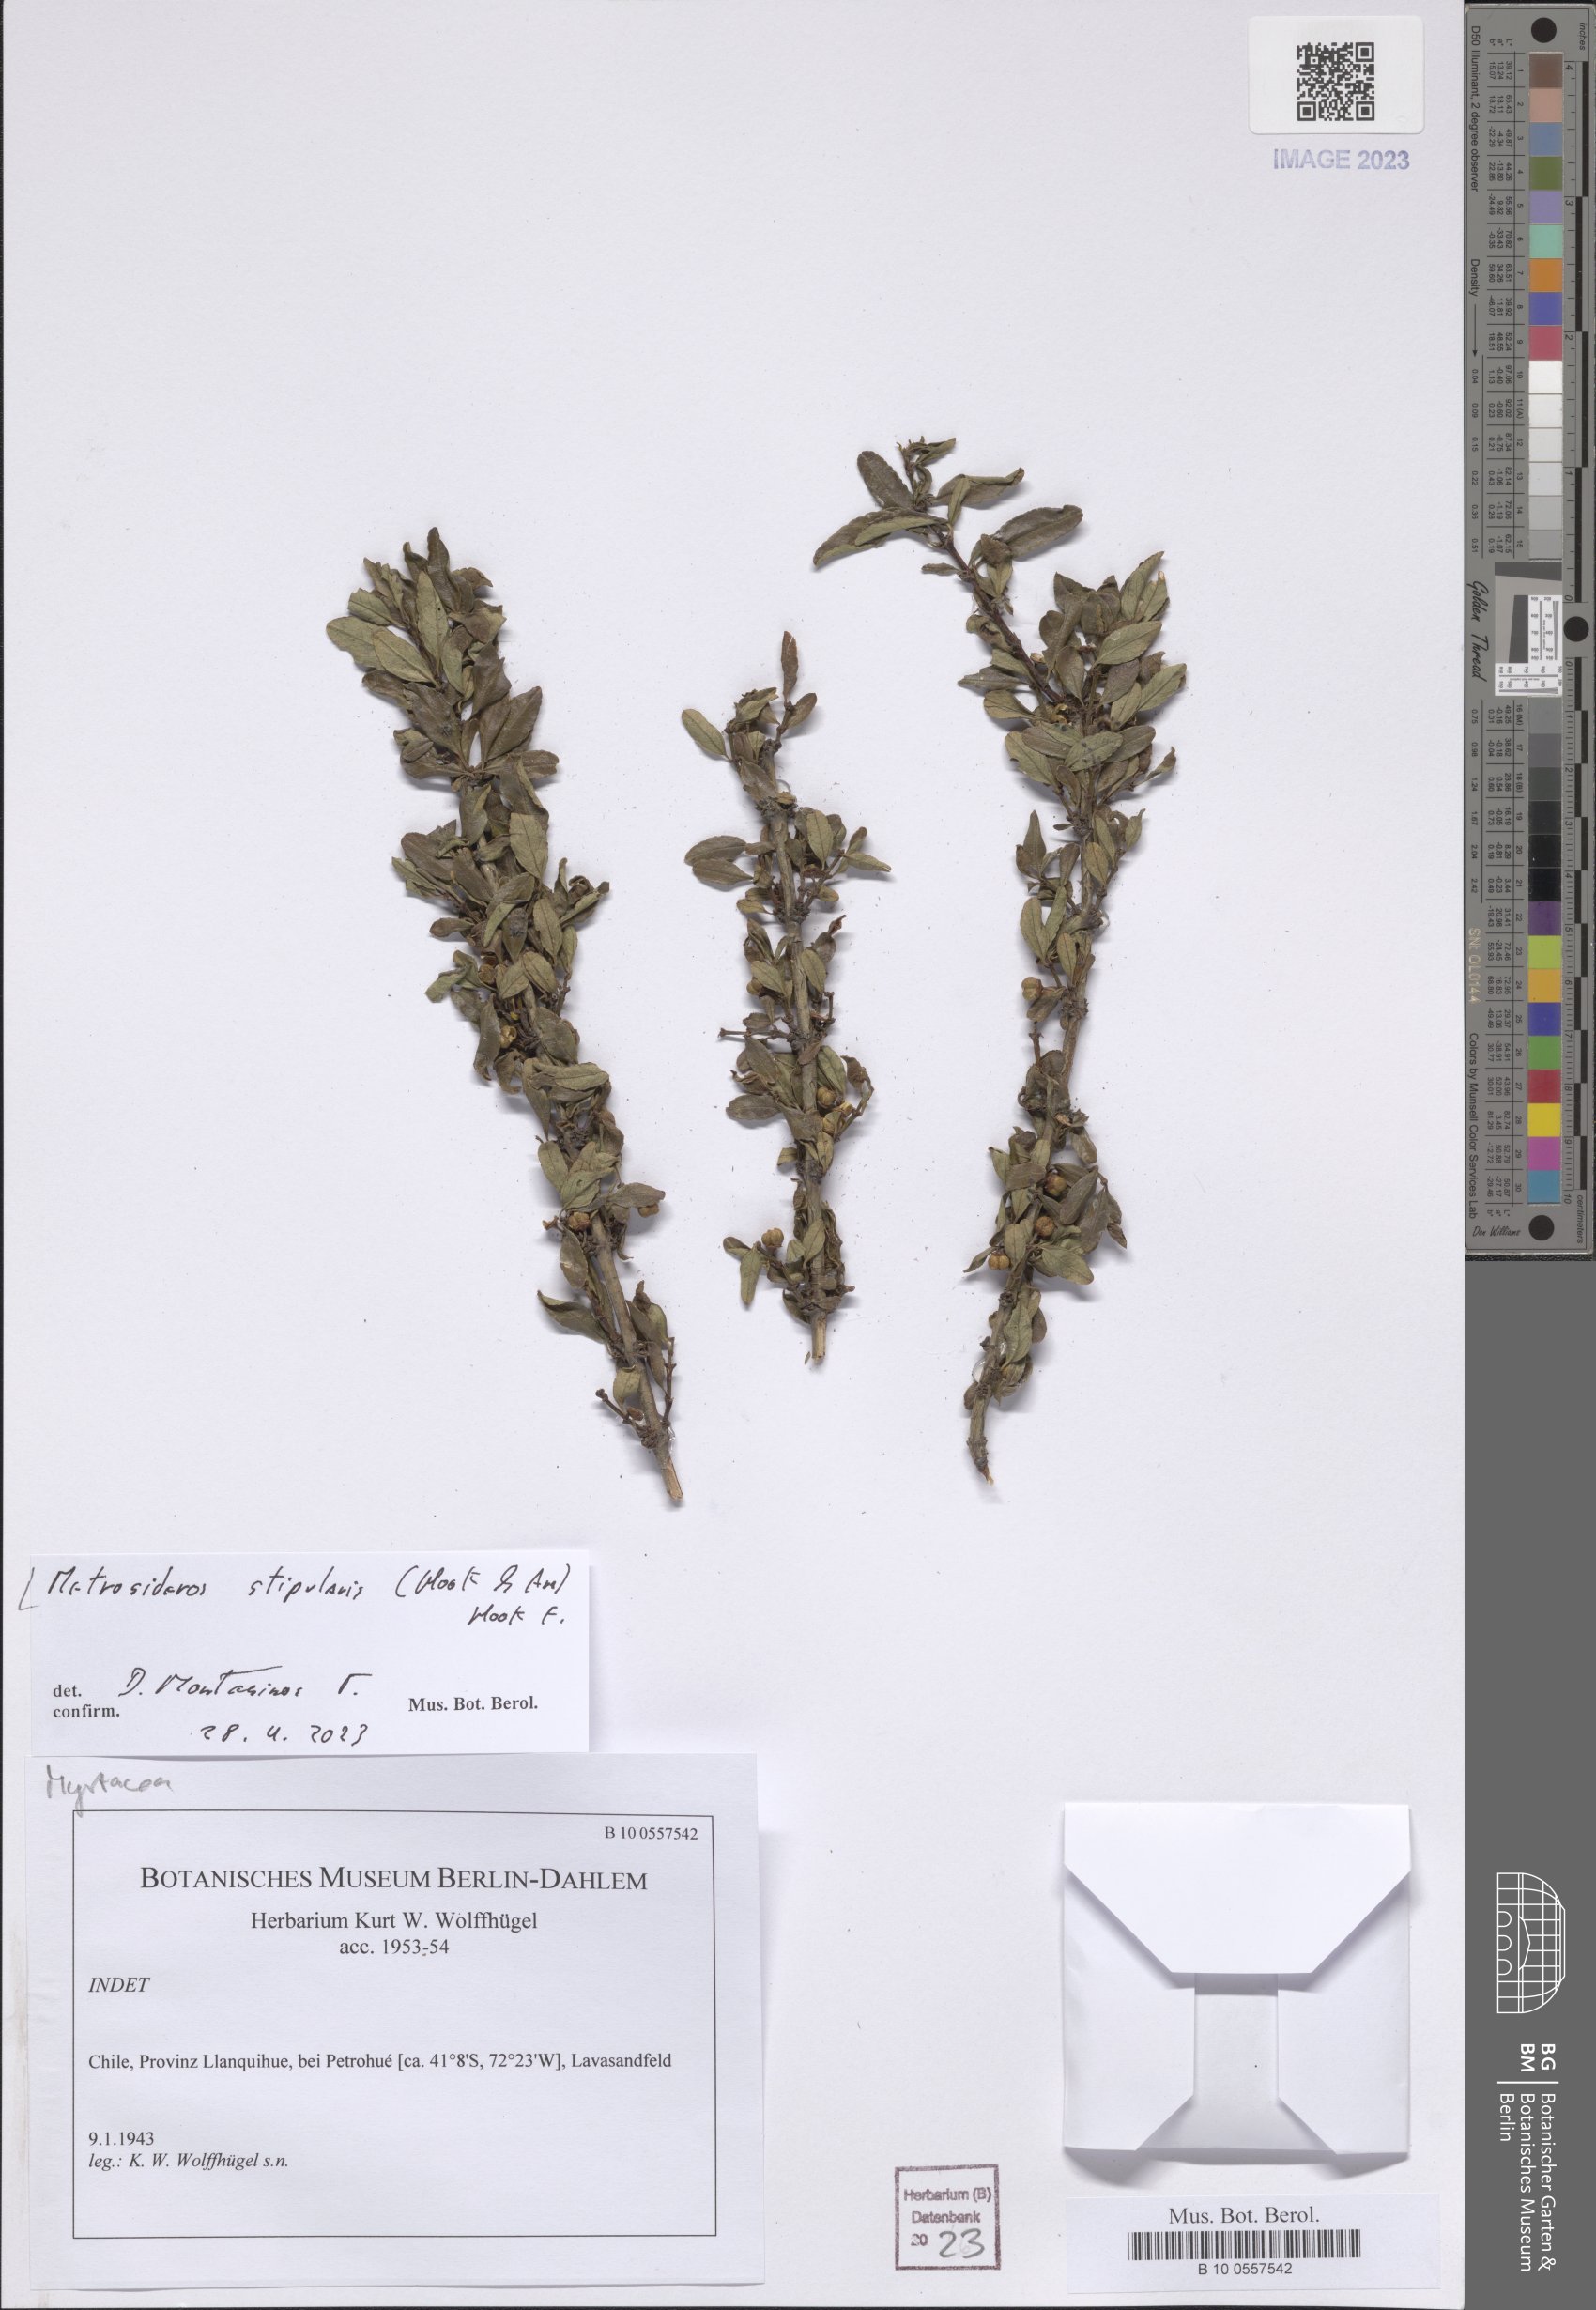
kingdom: Plantae
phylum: Tracheophyta
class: Magnoliopsida
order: Myrtales
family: Myrtaceae
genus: Tepualia
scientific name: Tepualia stipularis
